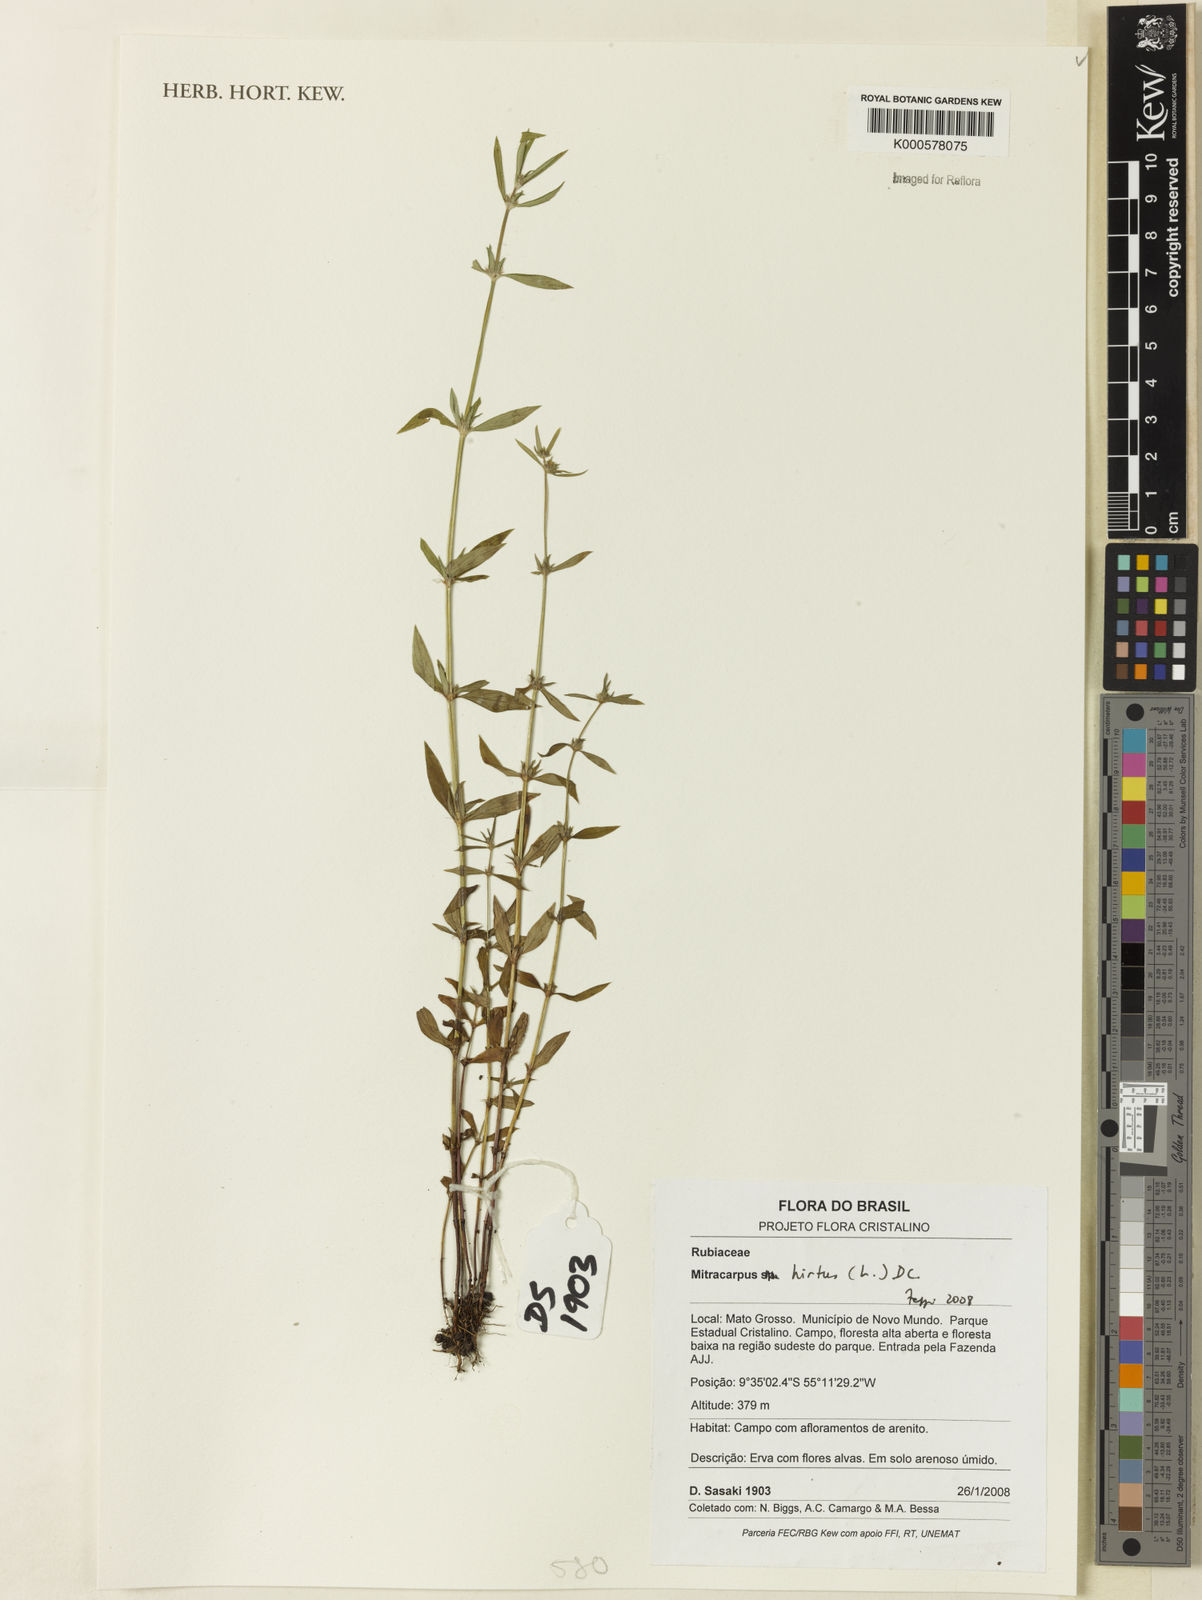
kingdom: Plantae
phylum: Tracheophyta
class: Magnoliopsida
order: Gentianales
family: Rubiaceae
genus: Mitracarpus
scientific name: Mitracarpus hirtus
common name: Tropical girdlepod
